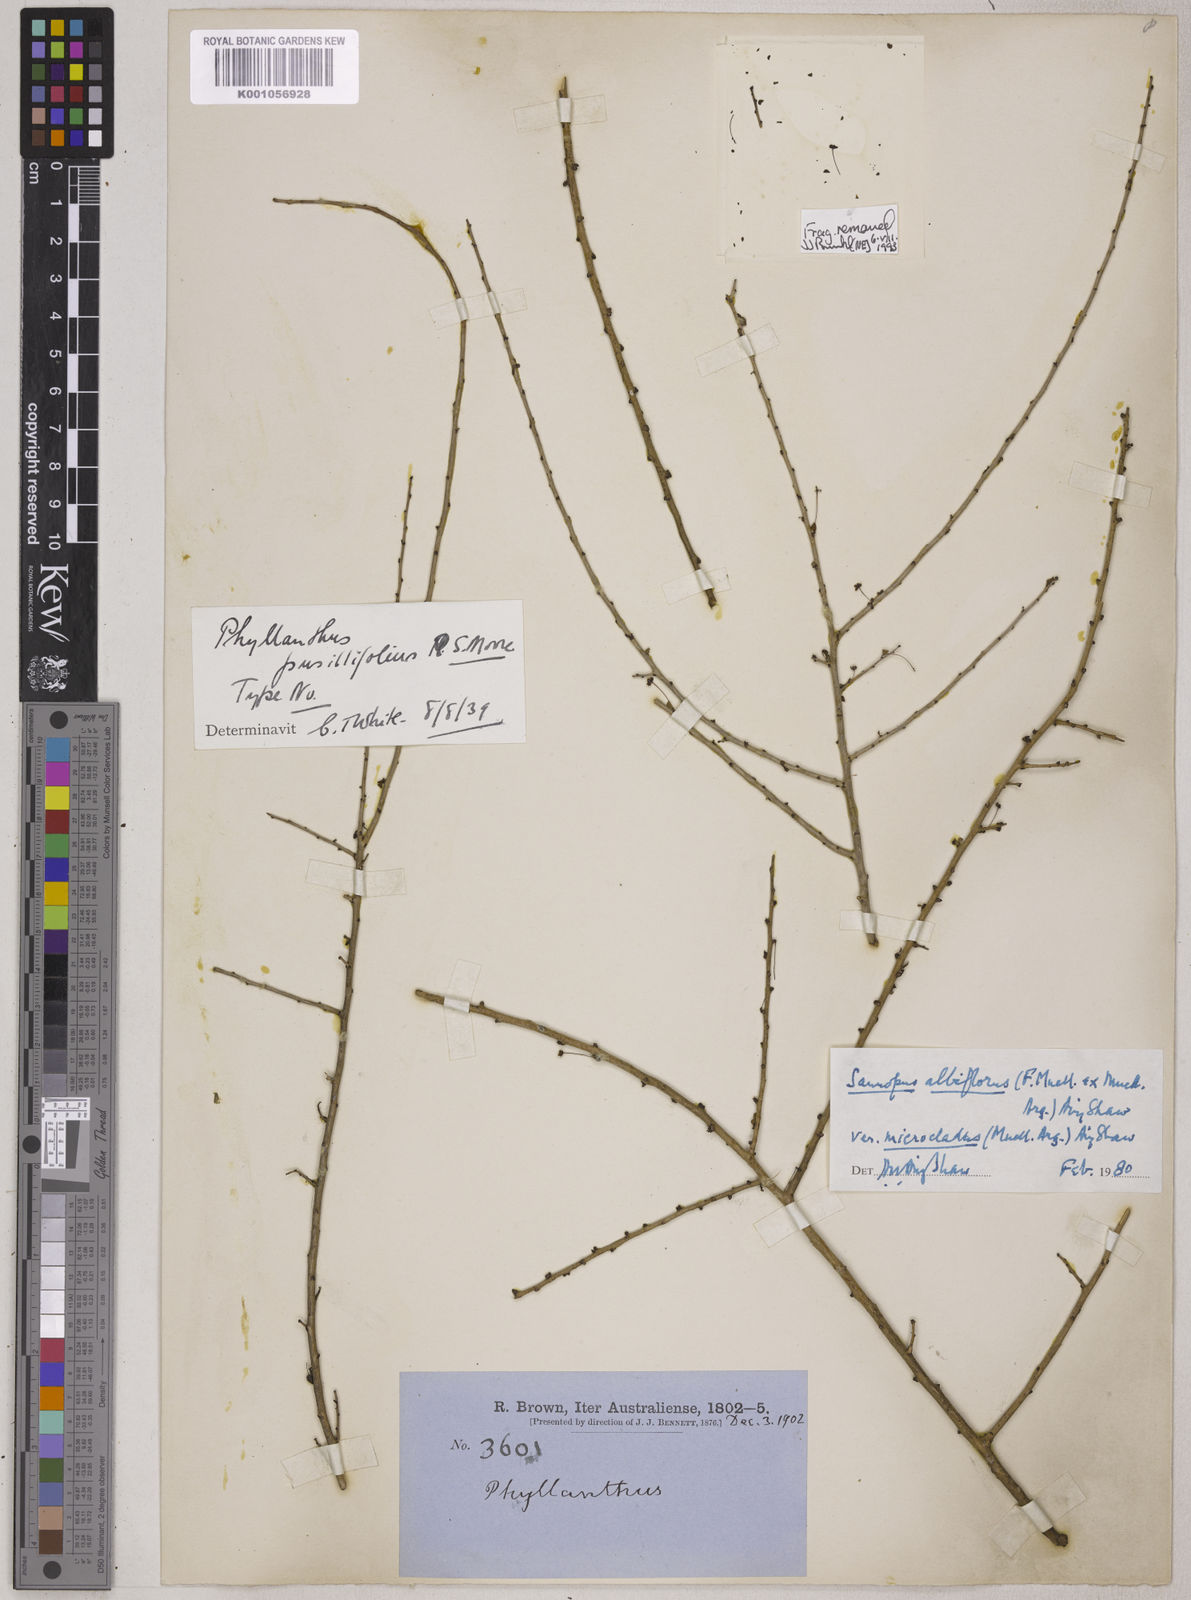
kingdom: Plantae
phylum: Tracheophyta
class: Magnoliopsida
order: Malpighiales
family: Phyllanthaceae
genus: Phyllanthus
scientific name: Phyllanthus
